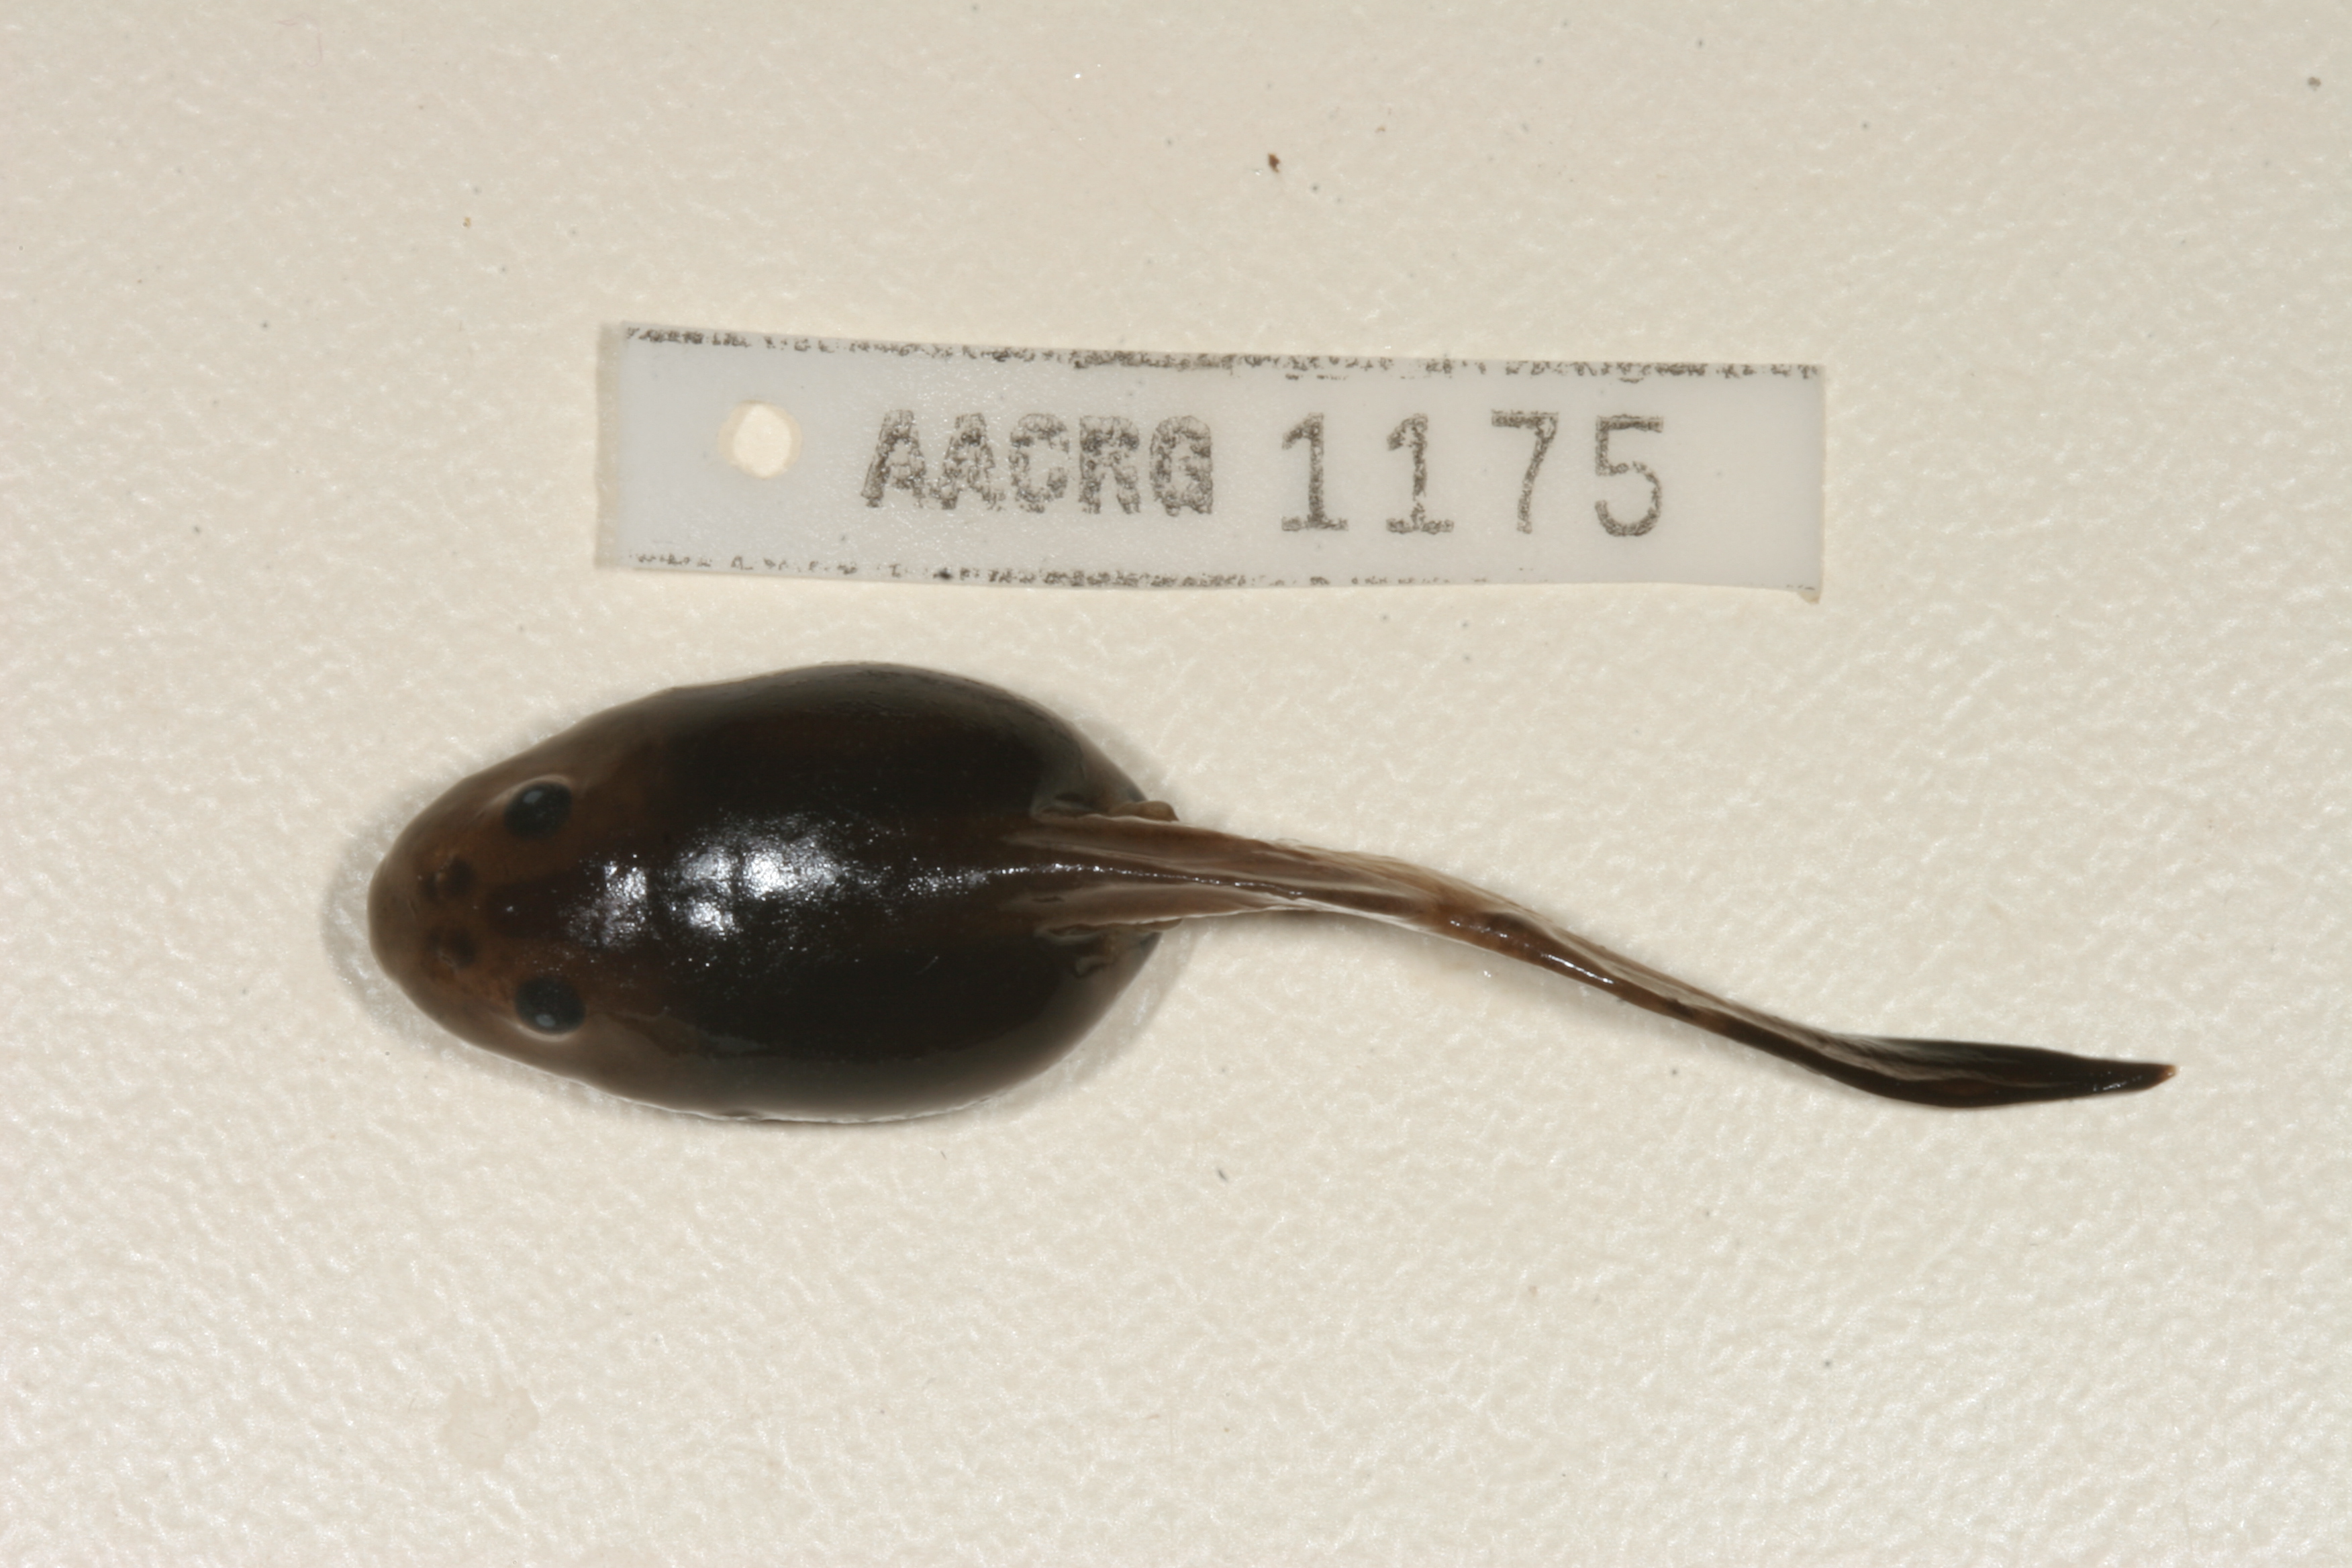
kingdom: Animalia
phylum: Chordata
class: Amphibia
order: Anura
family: Pyxicephalidae
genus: Strongylopus
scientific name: Strongylopus grayii
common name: Gray's stream frog
